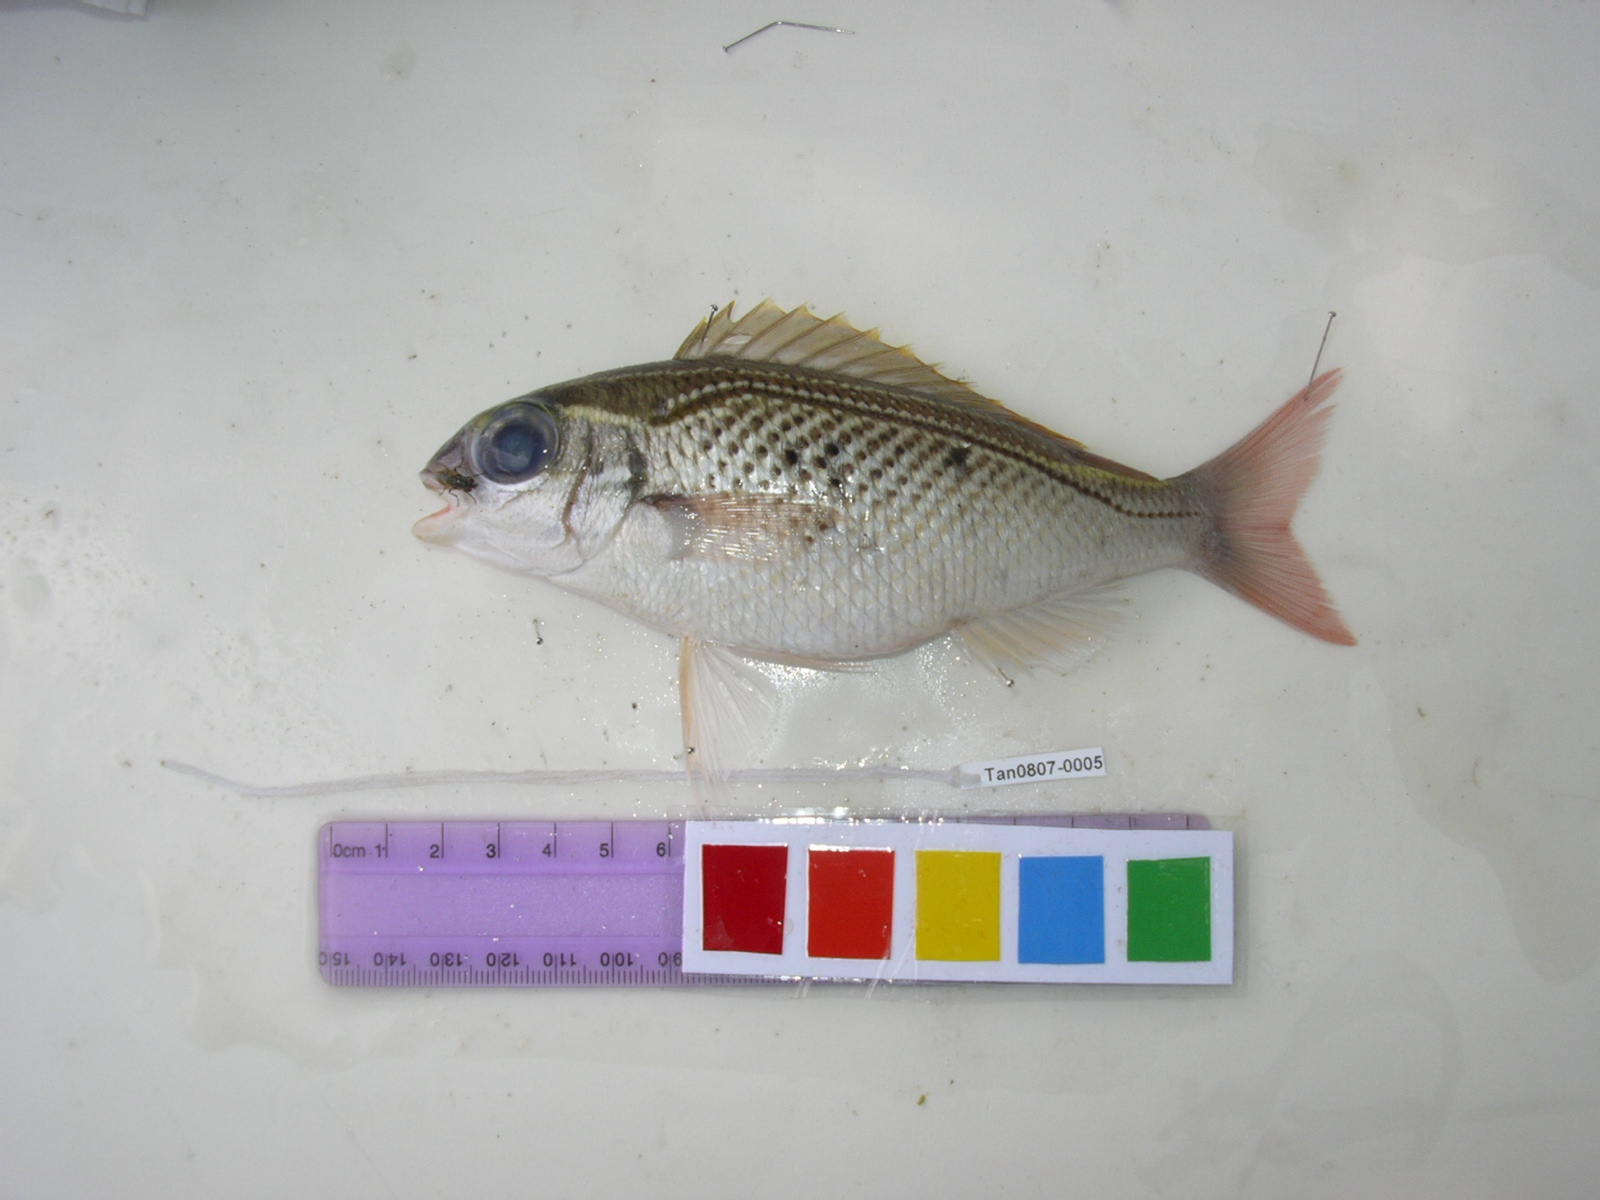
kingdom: Animalia
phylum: Chordata
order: Perciformes
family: Nemipteridae
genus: Scolopsis
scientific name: Scolopsis ghanam
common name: Arabian monocle bream
